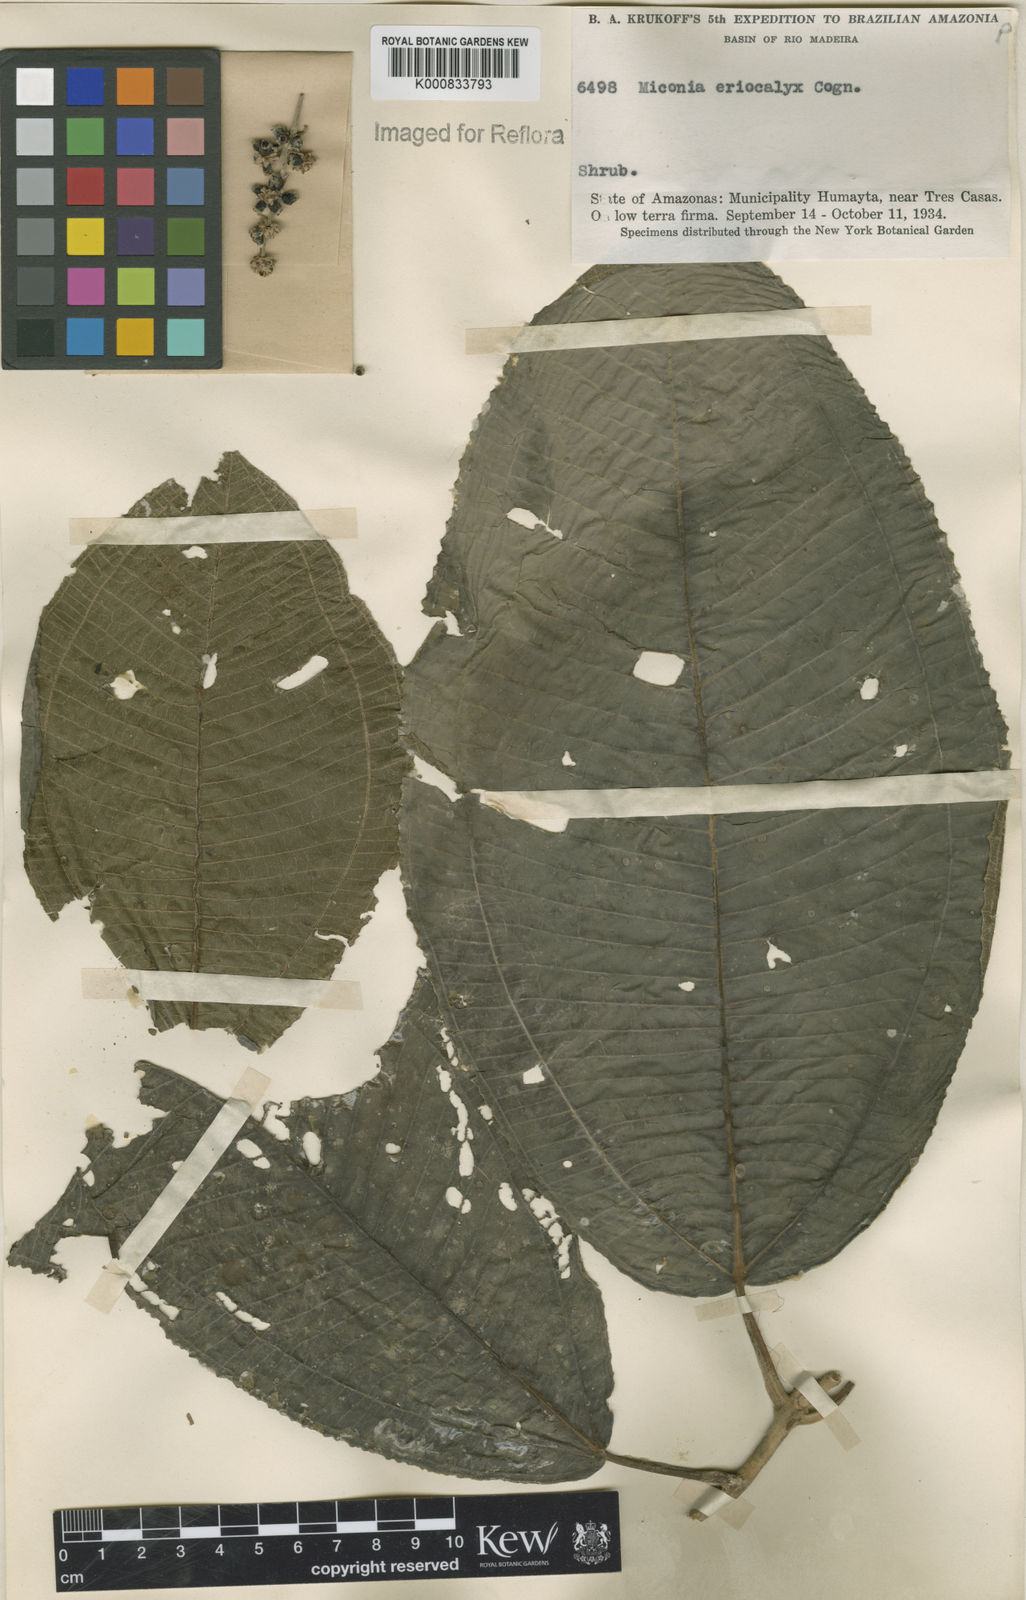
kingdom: Plantae
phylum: Tracheophyta
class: Magnoliopsida
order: Myrtales
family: Melastomataceae
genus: Miconia
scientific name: Miconia eriocalyx
